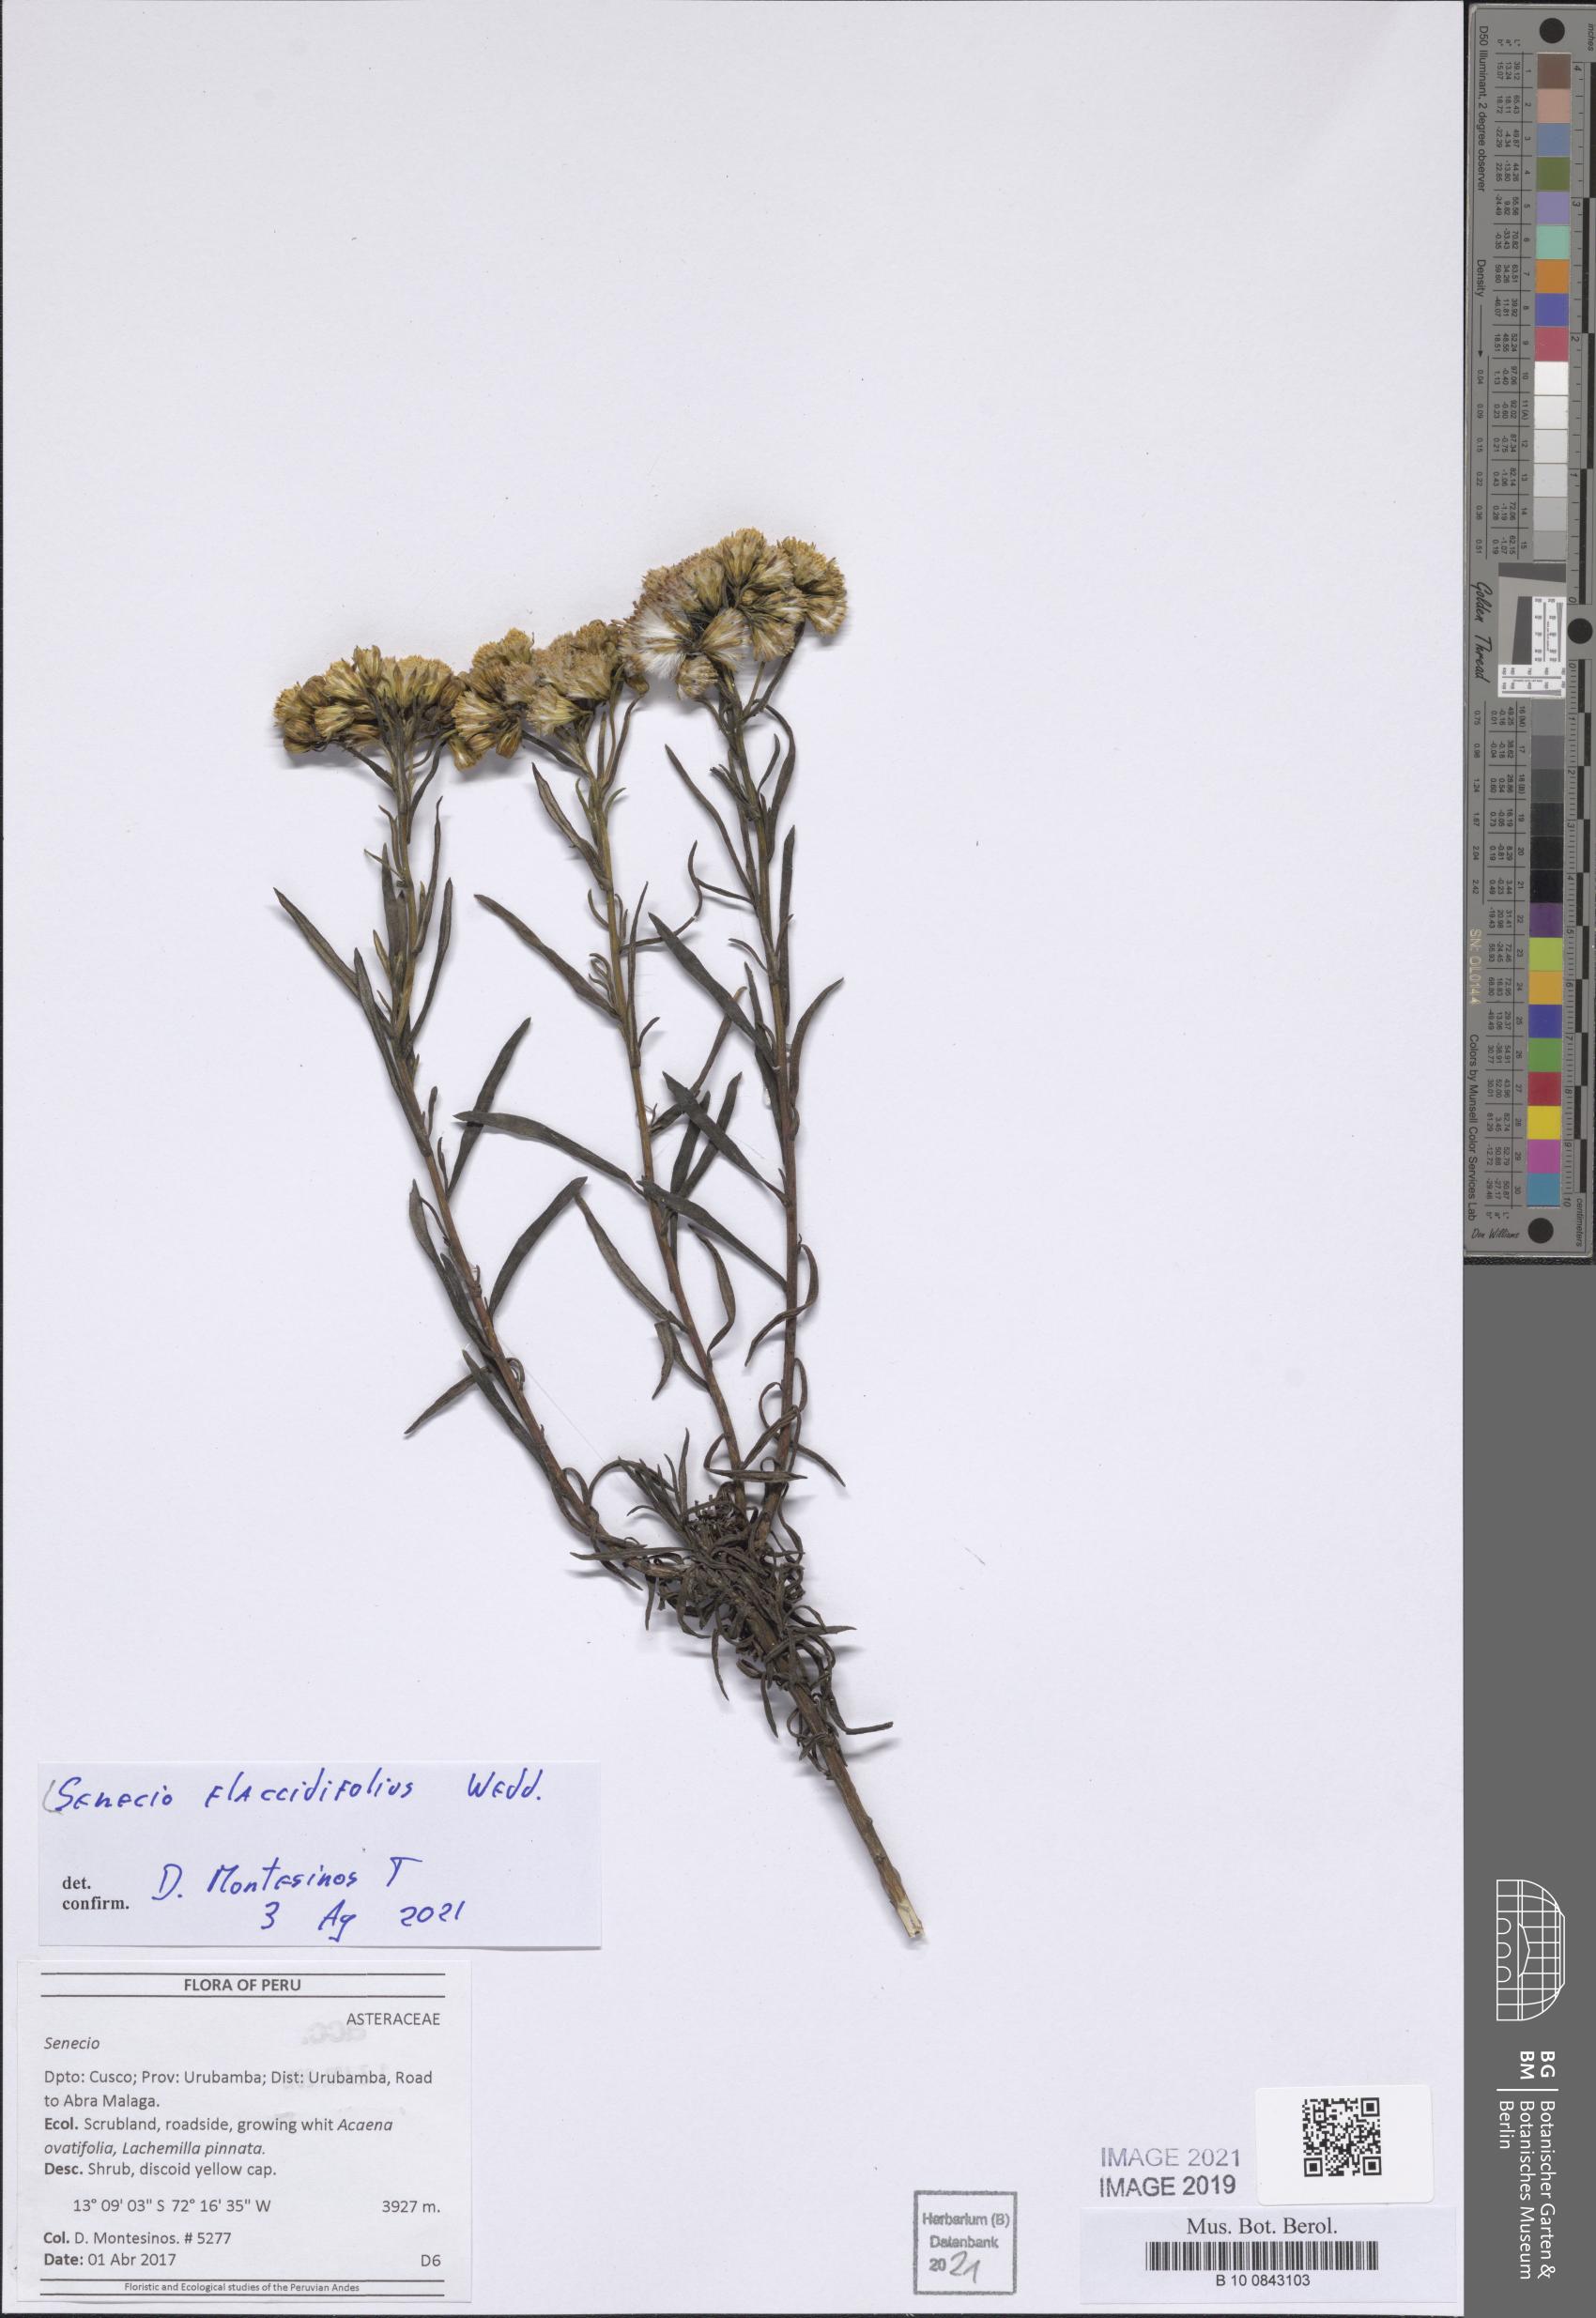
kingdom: Plantae
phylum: Tracheophyta
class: Magnoliopsida
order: Asterales
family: Asteraceae
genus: Senecio
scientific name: Senecio flaccidifolius
